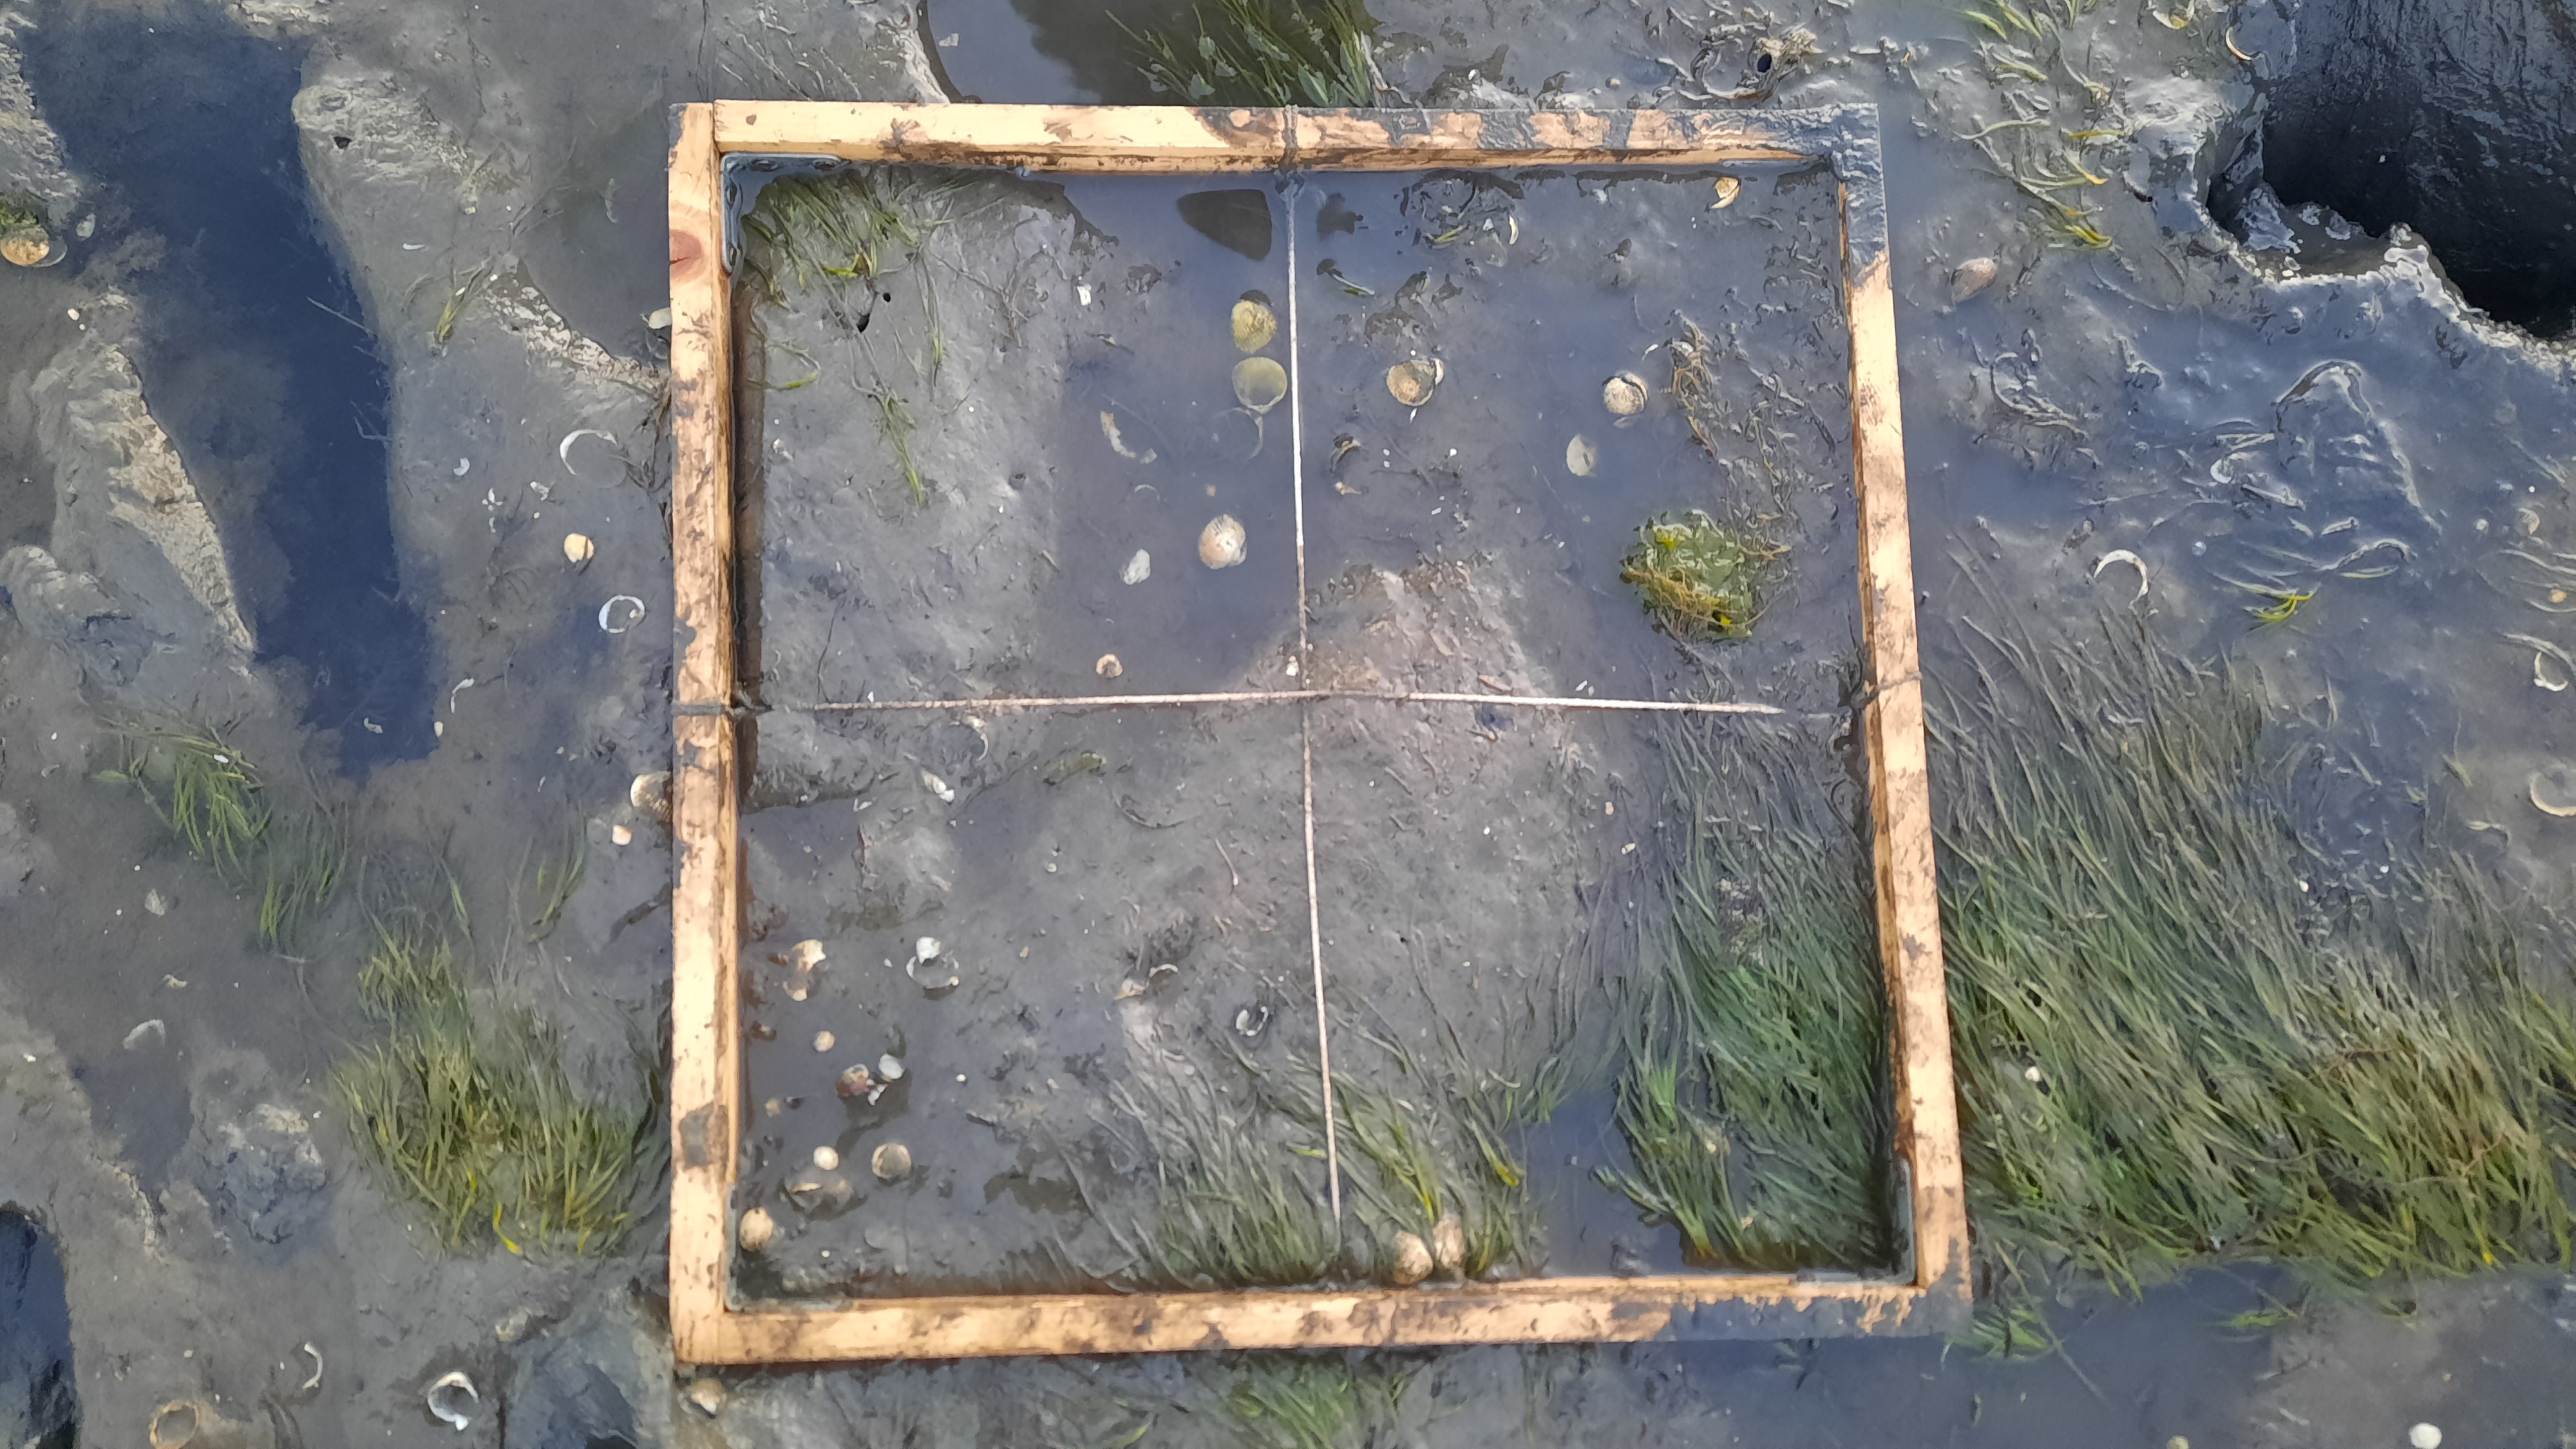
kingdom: Plantae
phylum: Tracheophyta
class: Liliopsida
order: Alismatales
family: Zosteraceae
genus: Zostera
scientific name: Zostera noltii
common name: Dwarf eelgrass
